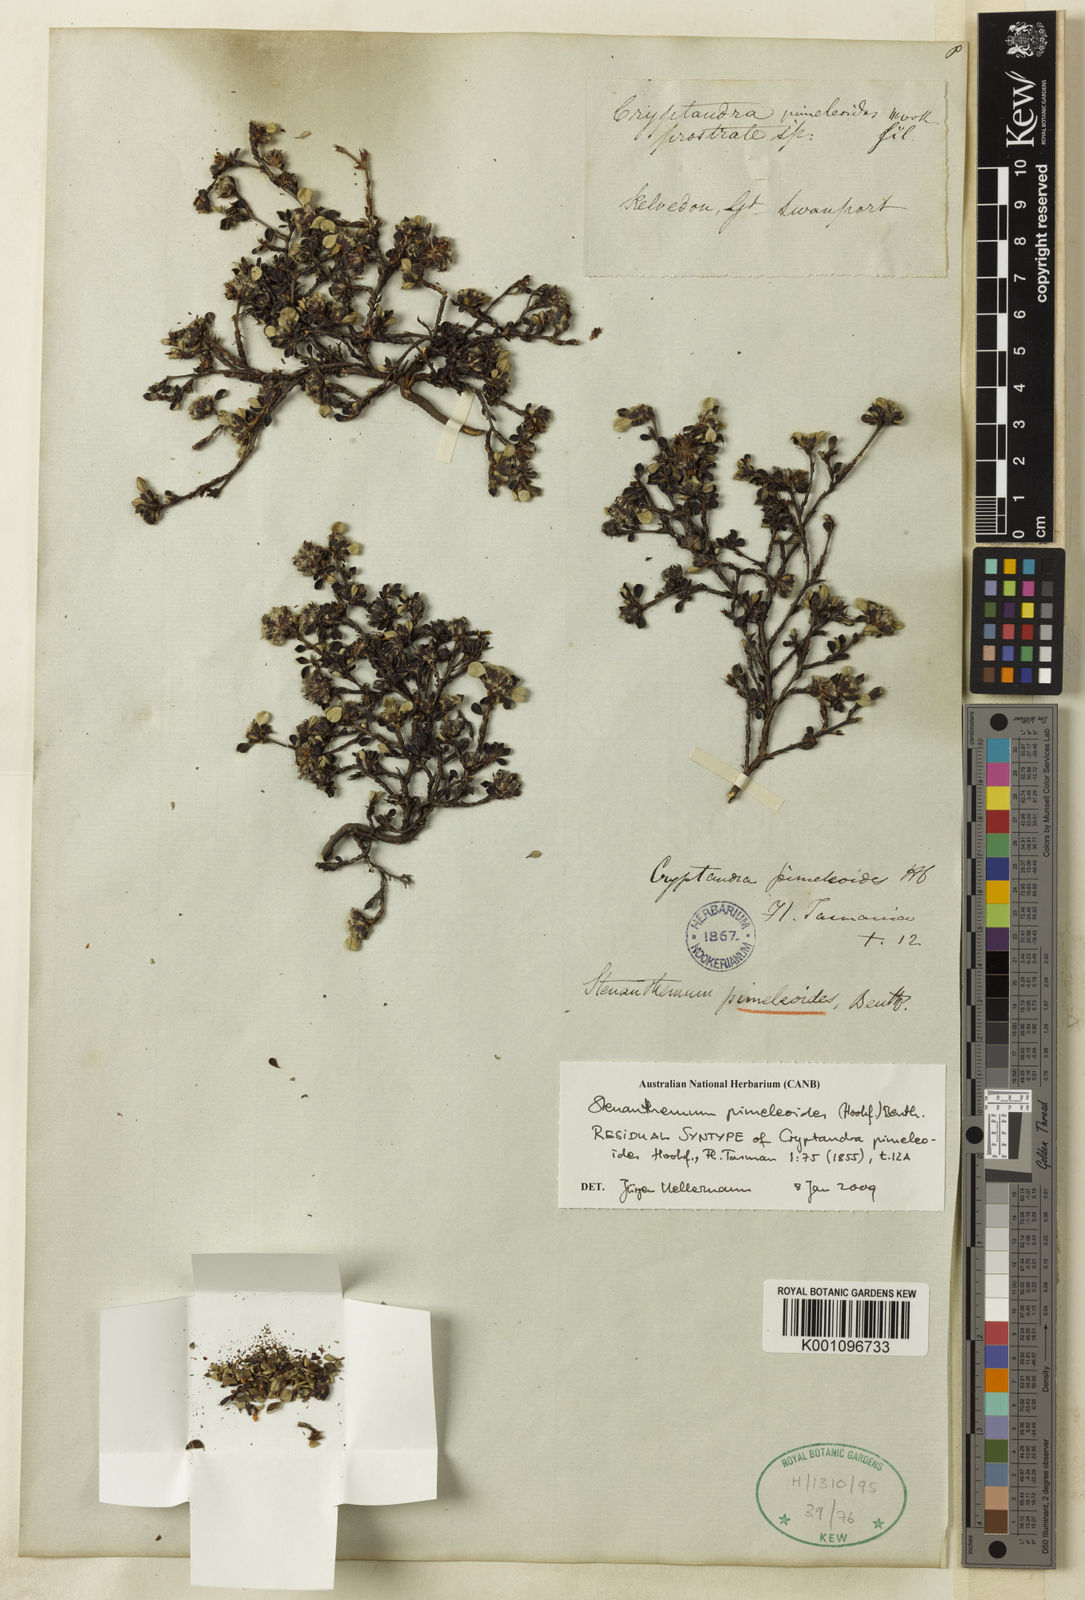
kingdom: Plantae
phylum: Tracheophyta
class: Magnoliopsida
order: Rosales
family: Rhamnaceae
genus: Stenanthemum
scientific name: Stenanthemum
